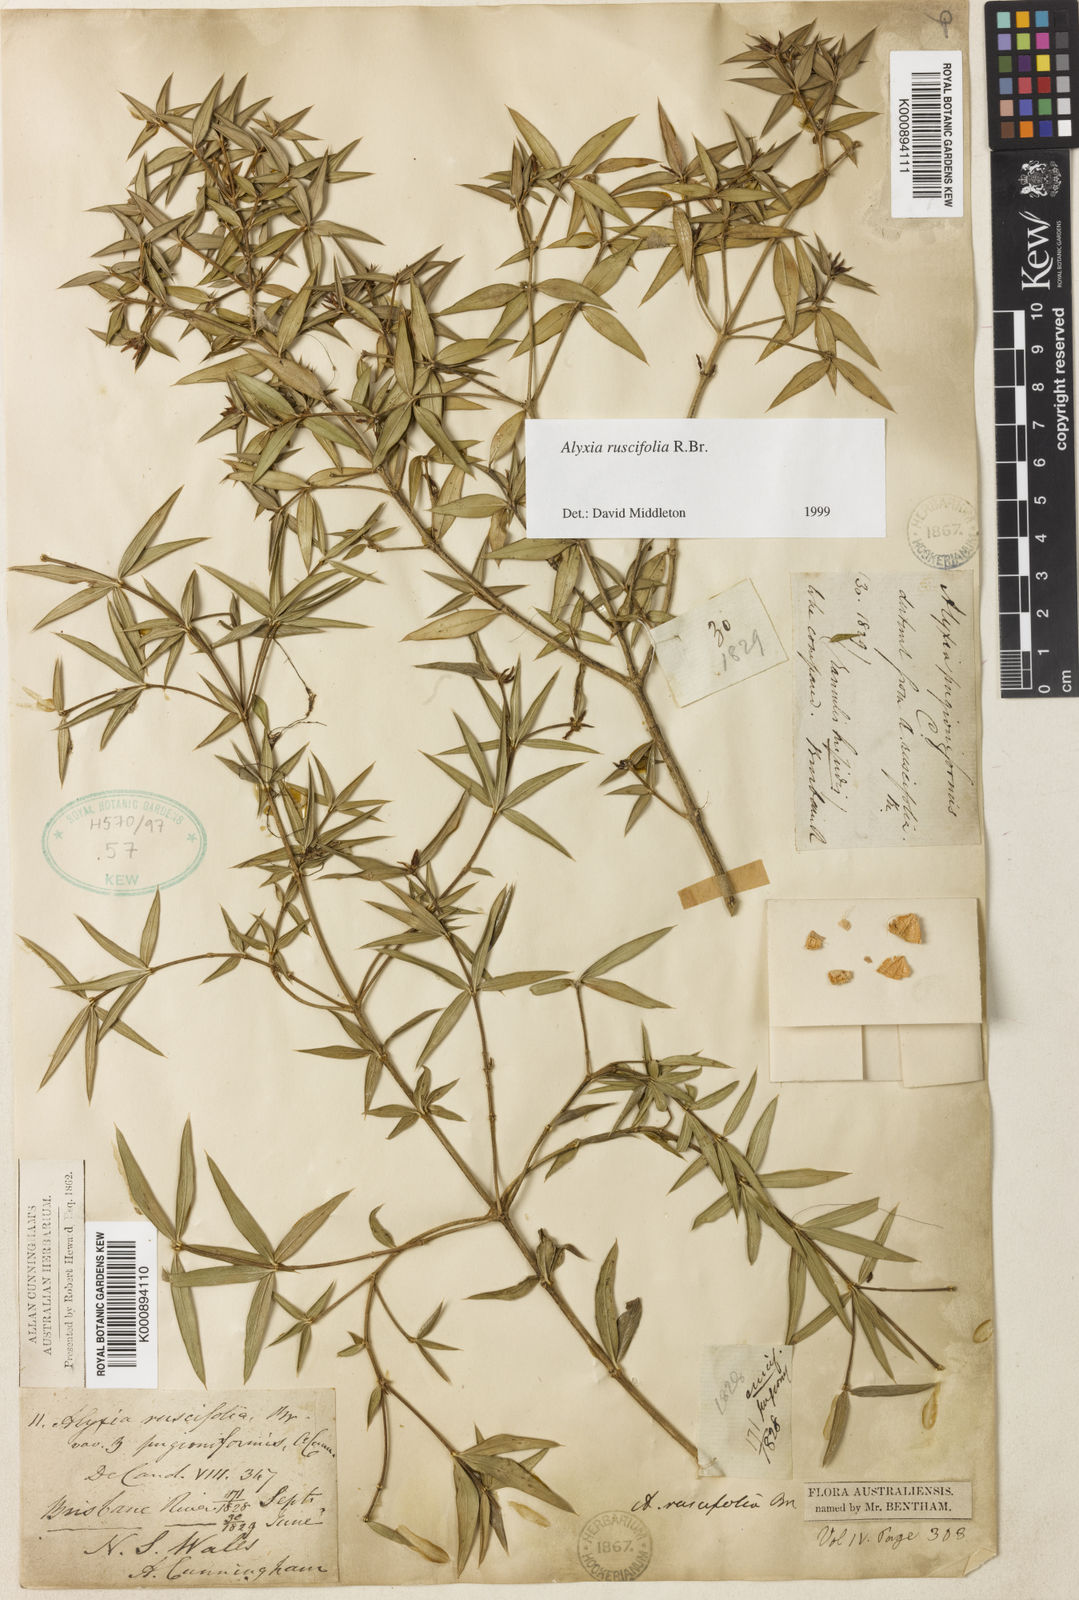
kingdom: Plantae
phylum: Tracheophyta
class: Magnoliopsida
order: Gentianales
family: Apocynaceae
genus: Alyxia
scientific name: Alyxia ruscifolia
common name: Chainfruit
